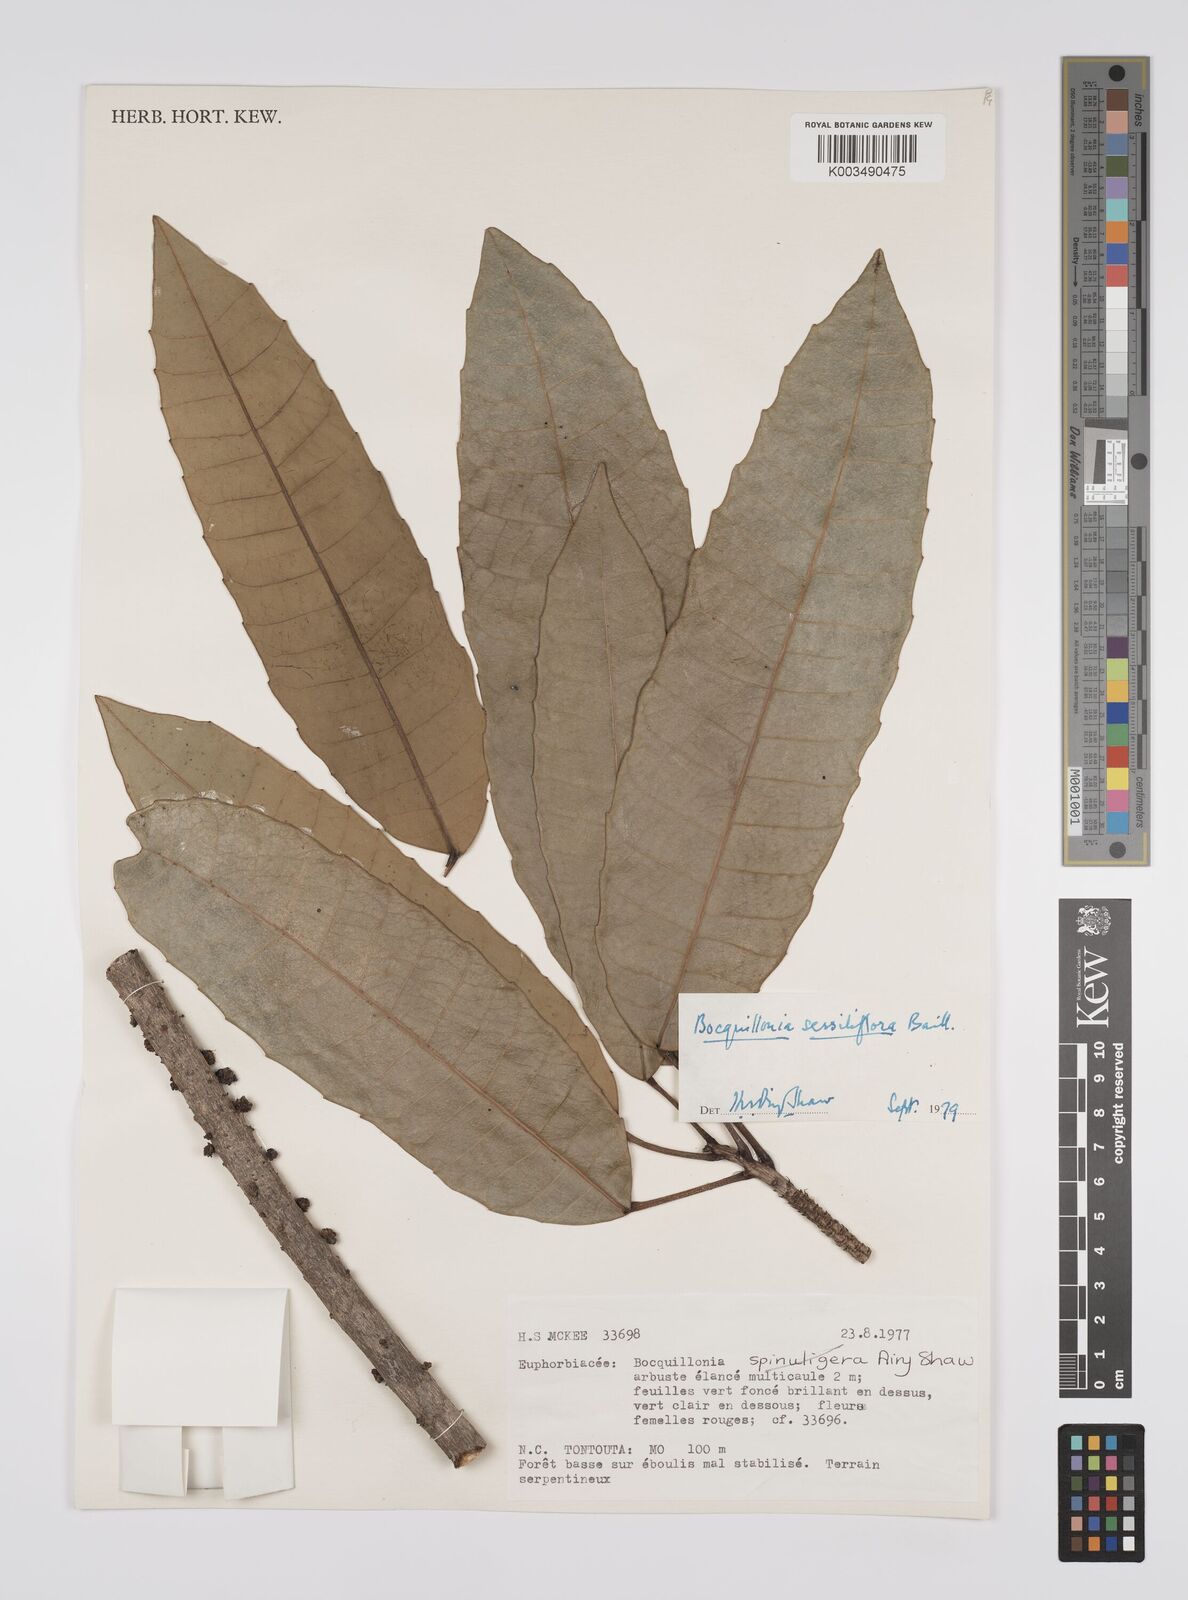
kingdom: Plantae
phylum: Tracheophyta
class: Magnoliopsida
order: Malpighiales
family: Euphorbiaceae
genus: Bocquillonia
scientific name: Bocquillonia sessiliflora
